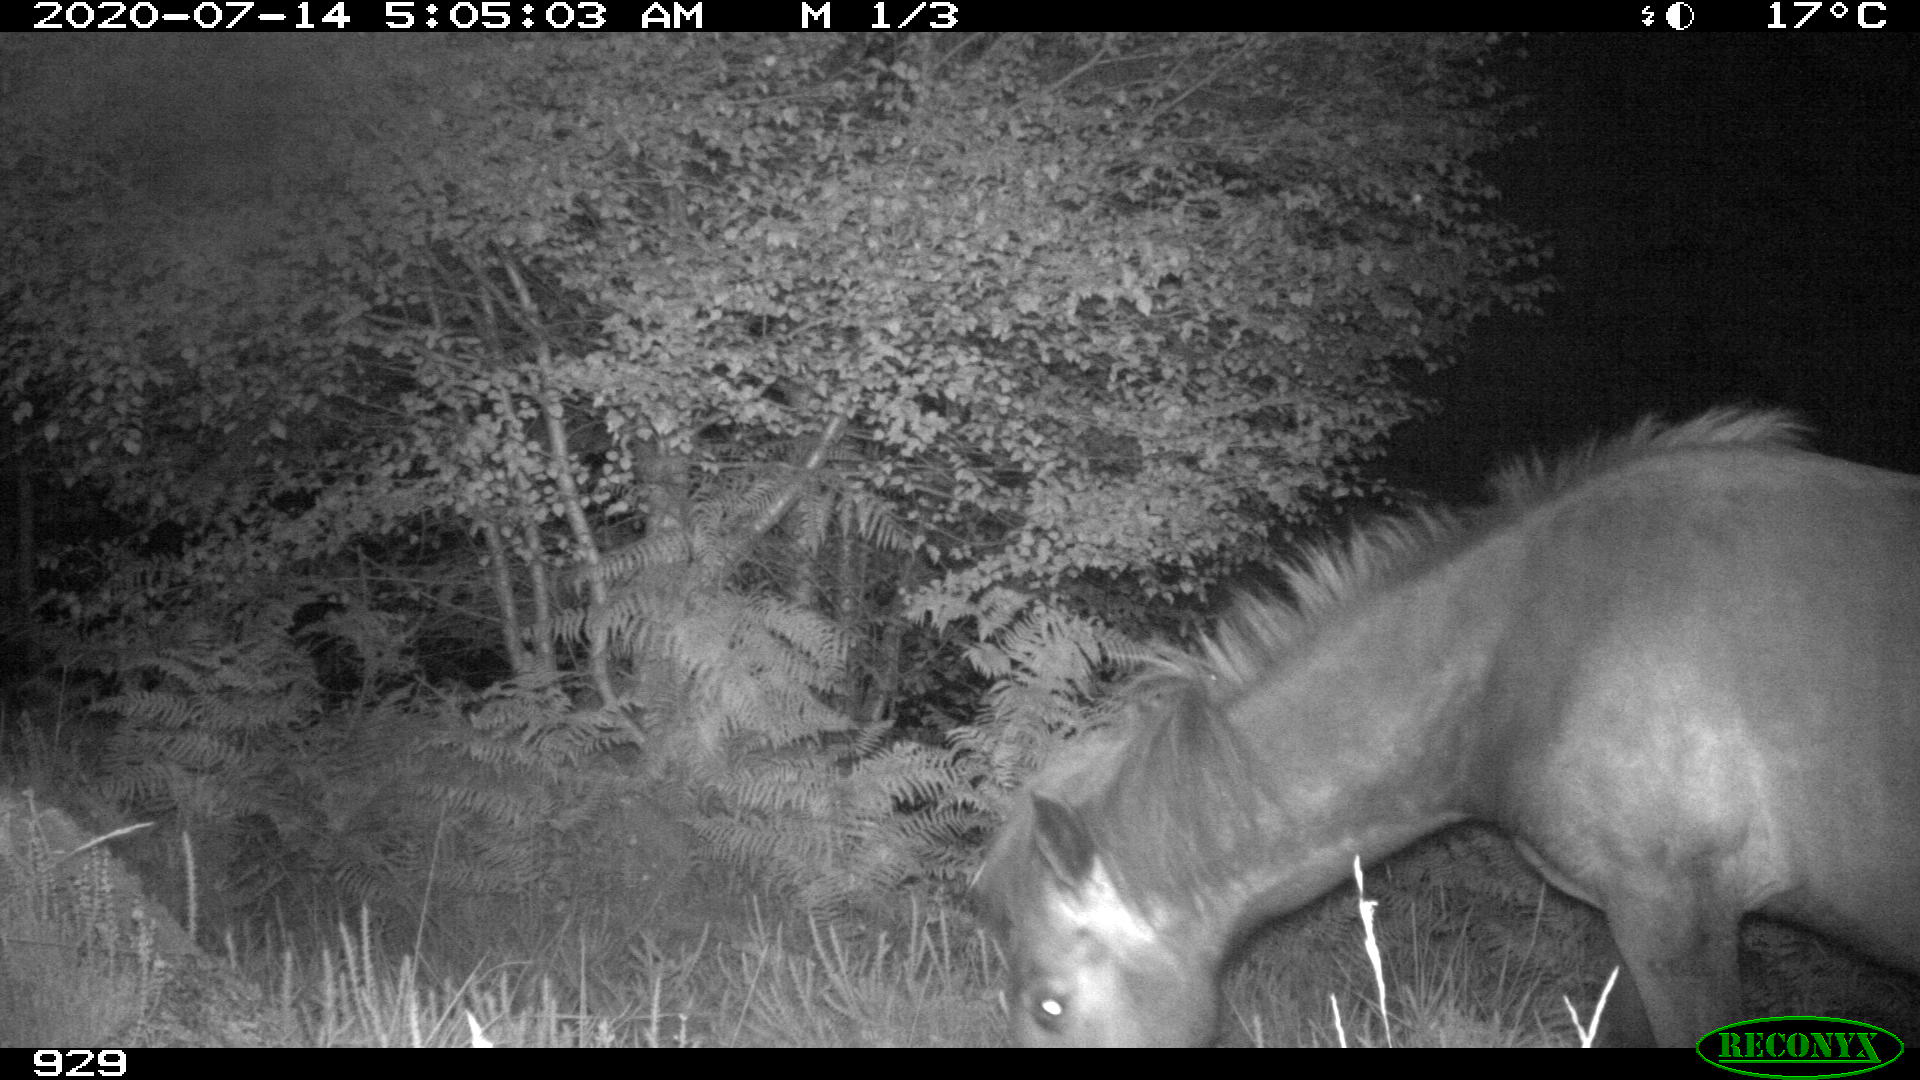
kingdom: Animalia
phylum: Chordata
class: Mammalia
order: Perissodactyla
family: Equidae
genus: Equus
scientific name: Equus caballus
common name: Horse
